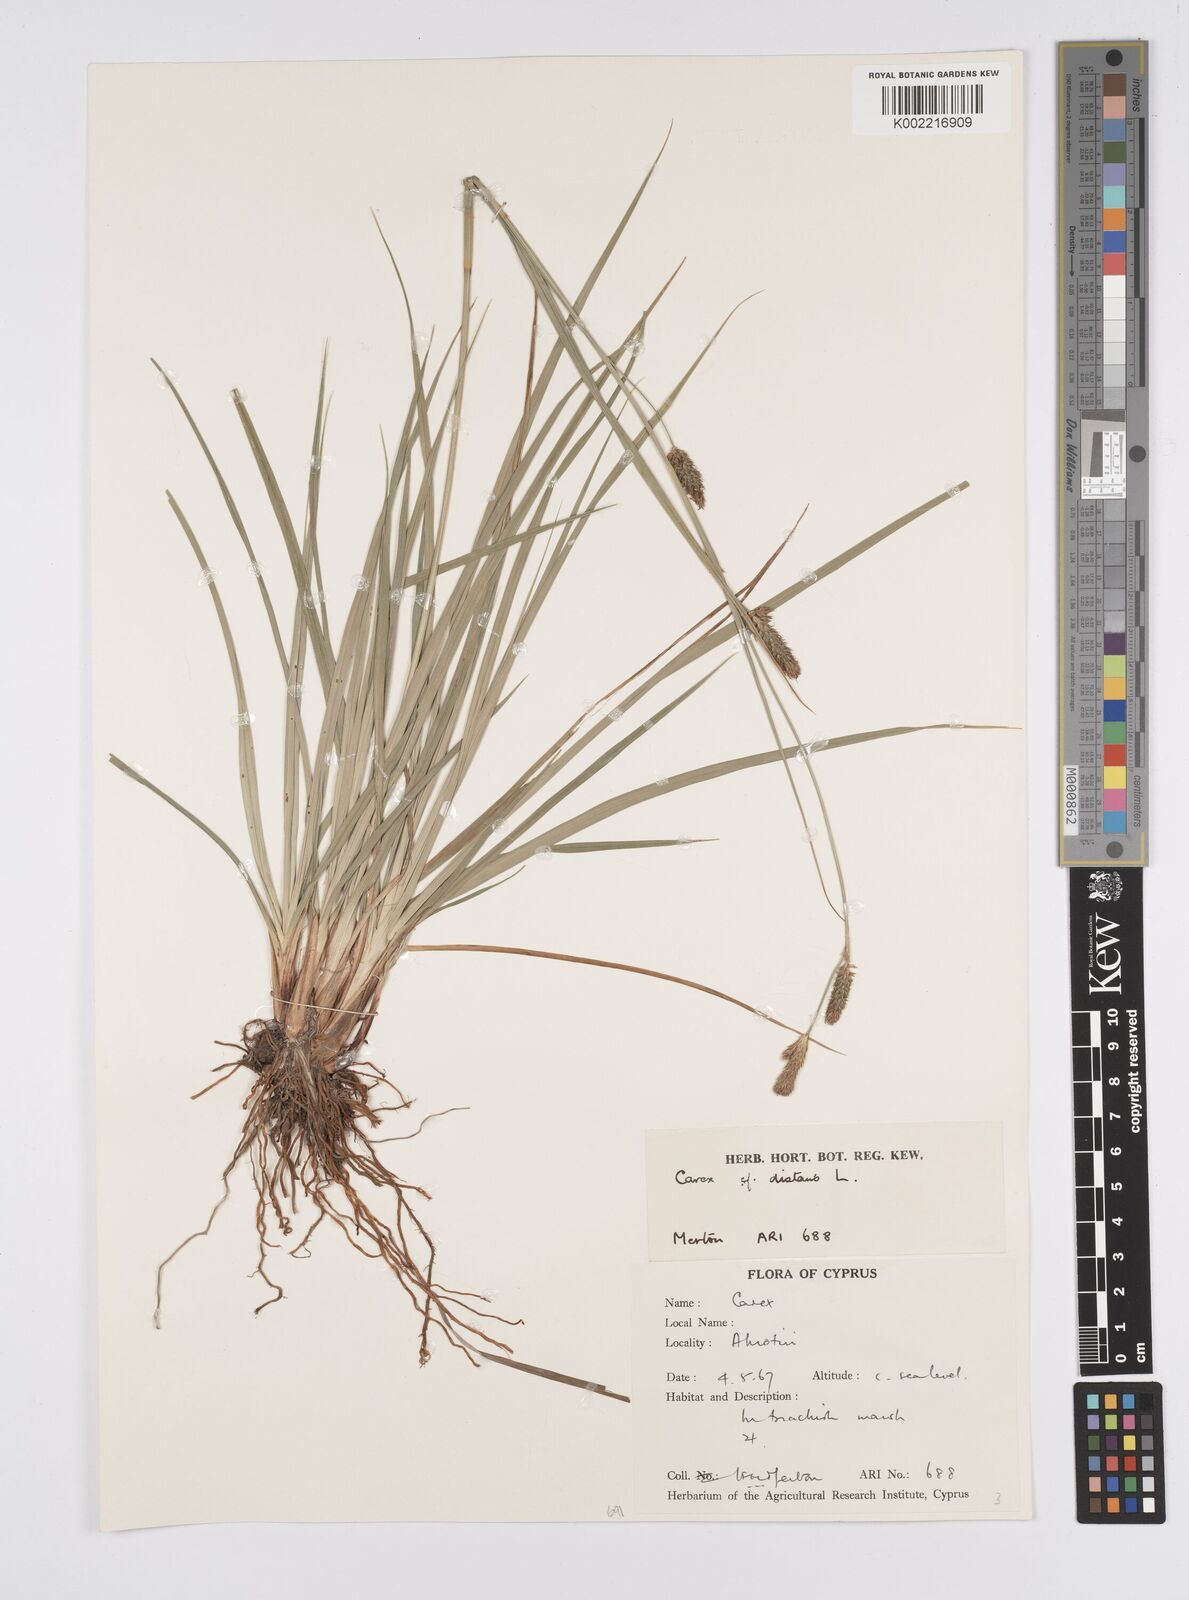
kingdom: Plantae
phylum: Tracheophyta
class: Liliopsida
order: Poales
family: Cyperaceae
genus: Carex
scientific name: Carex distans
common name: Distant sedge
